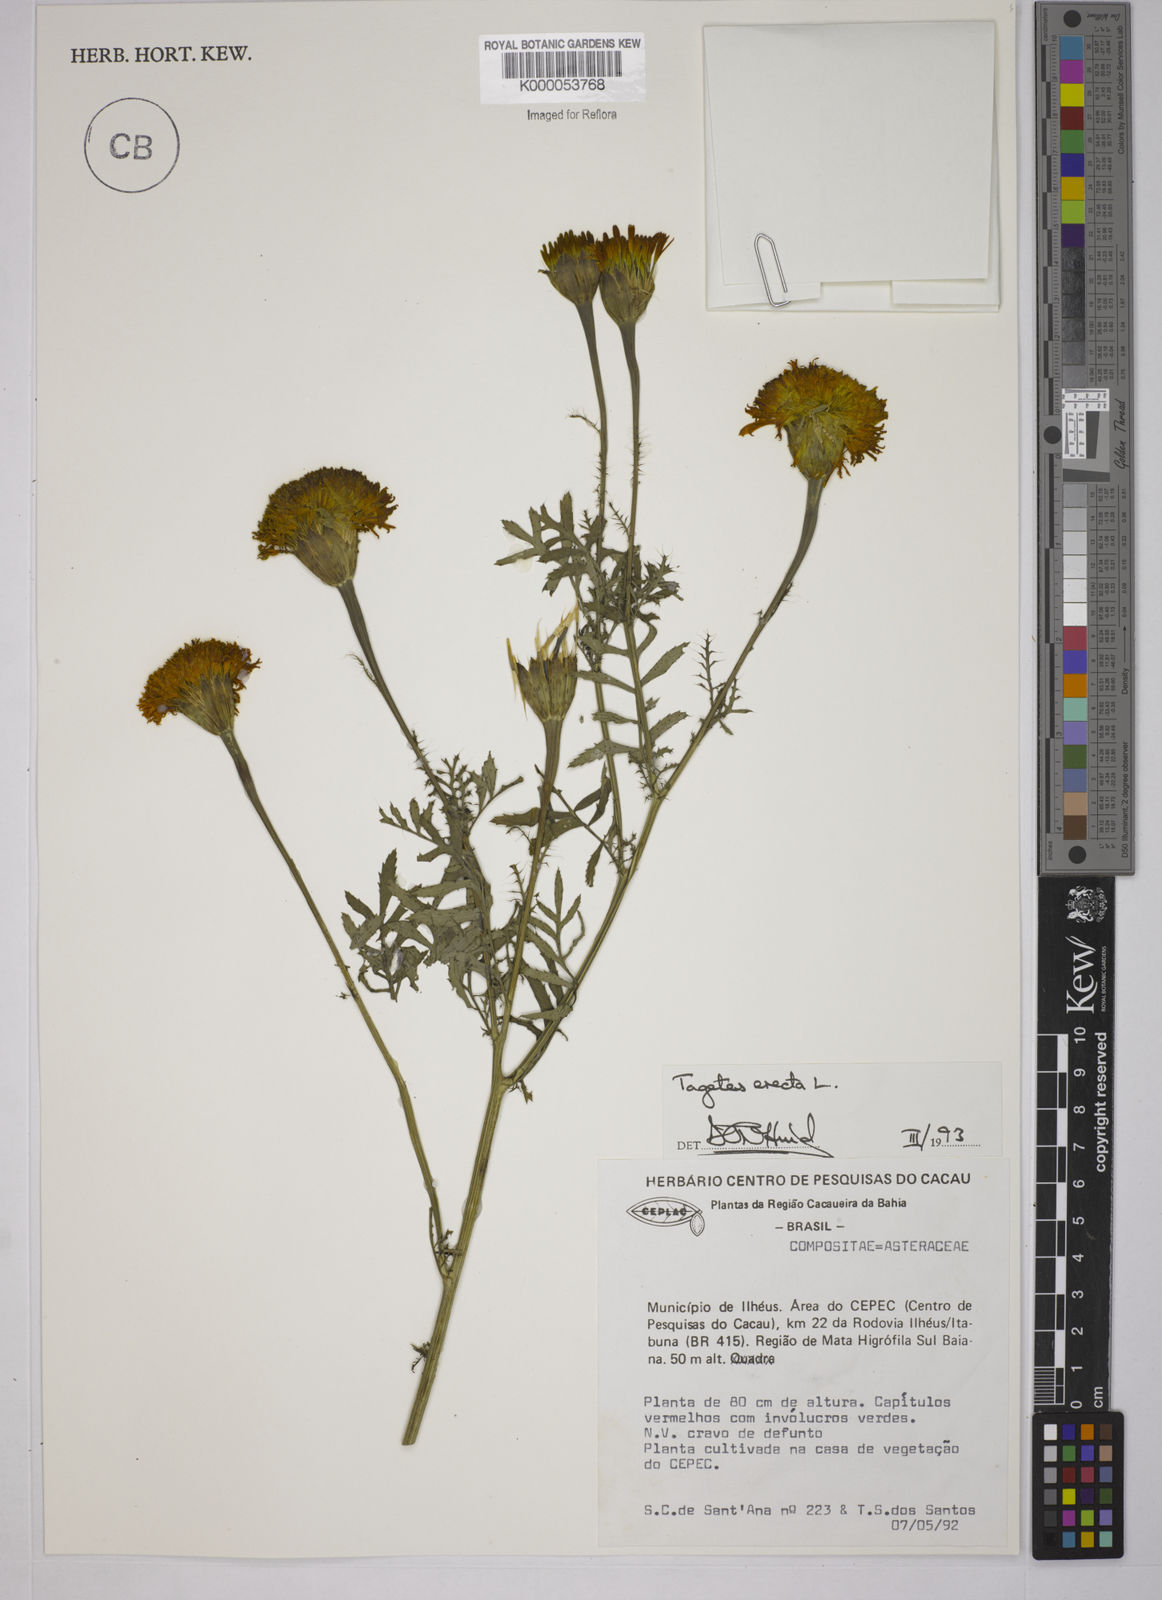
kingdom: Plantae
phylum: Tracheophyta
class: Magnoliopsida
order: Asterales
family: Asteraceae
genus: Tagetes
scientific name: Tagetes erecta
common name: African marigold
